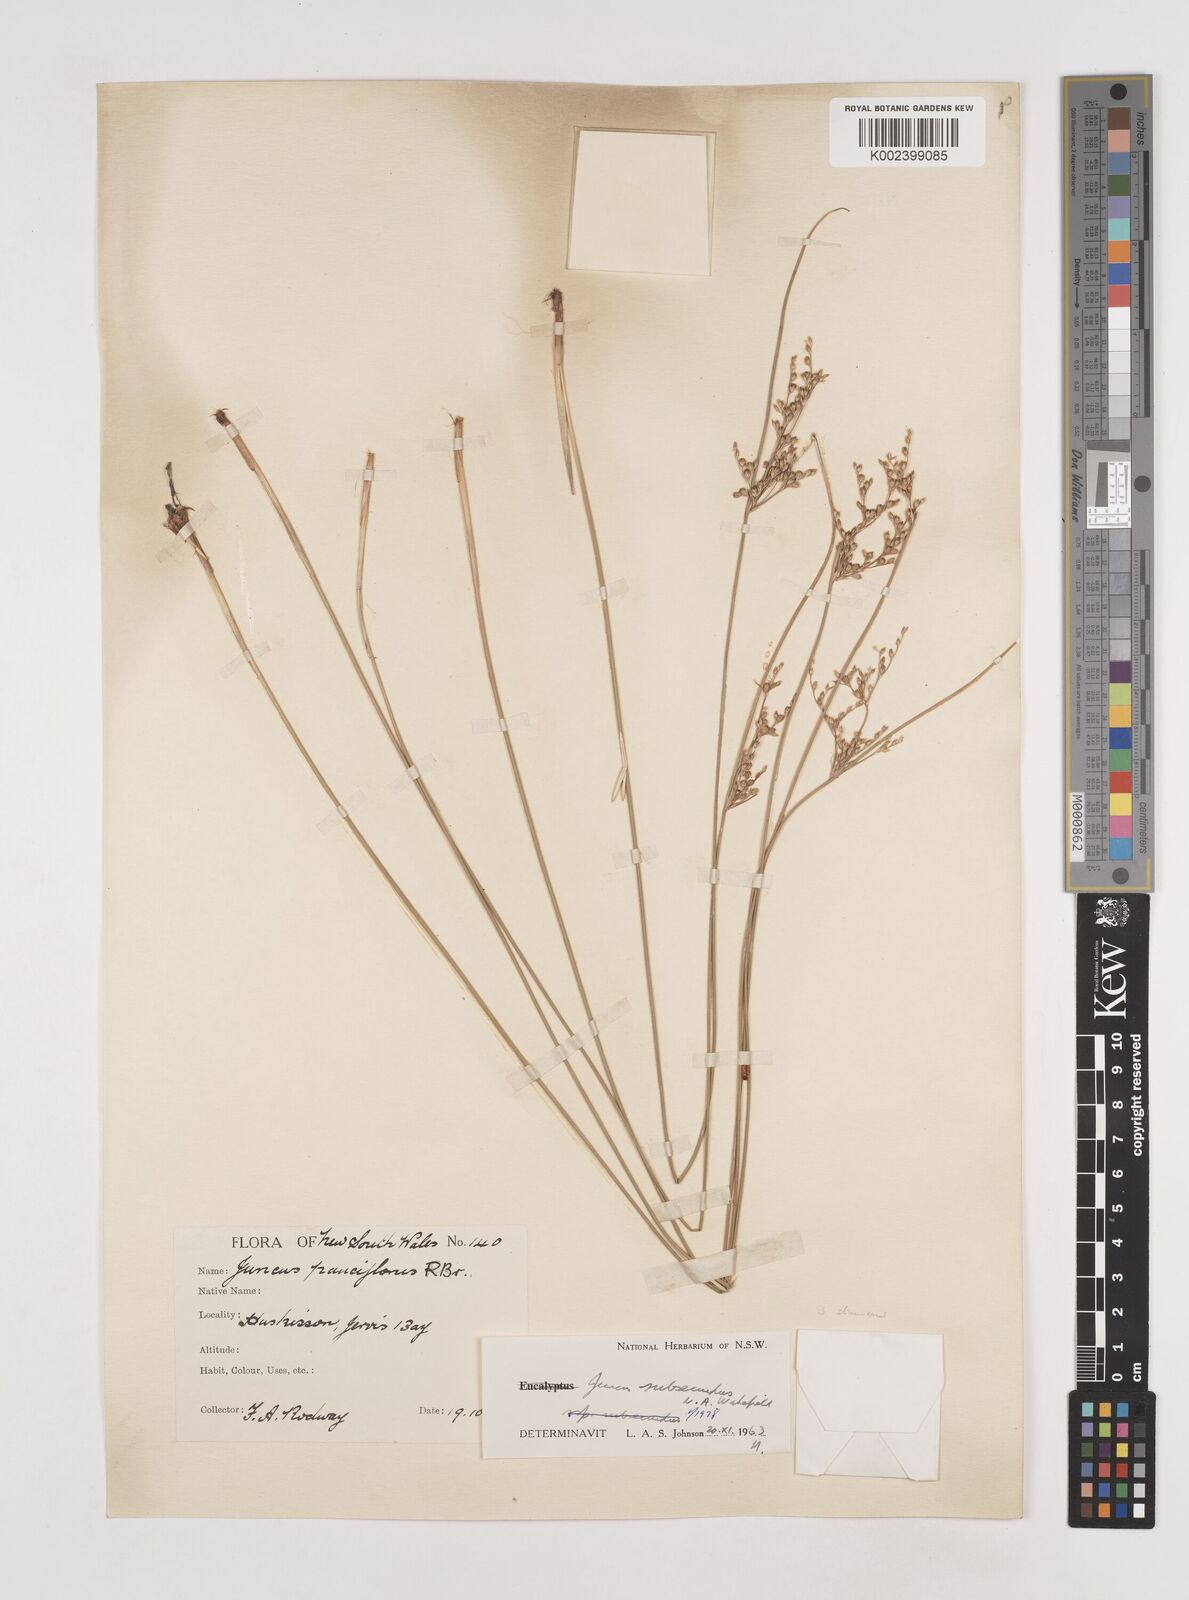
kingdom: Plantae
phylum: Tracheophyta
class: Liliopsida
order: Poales
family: Juncaceae
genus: Juncus
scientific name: Juncus subsecundus
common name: Fingered rush
